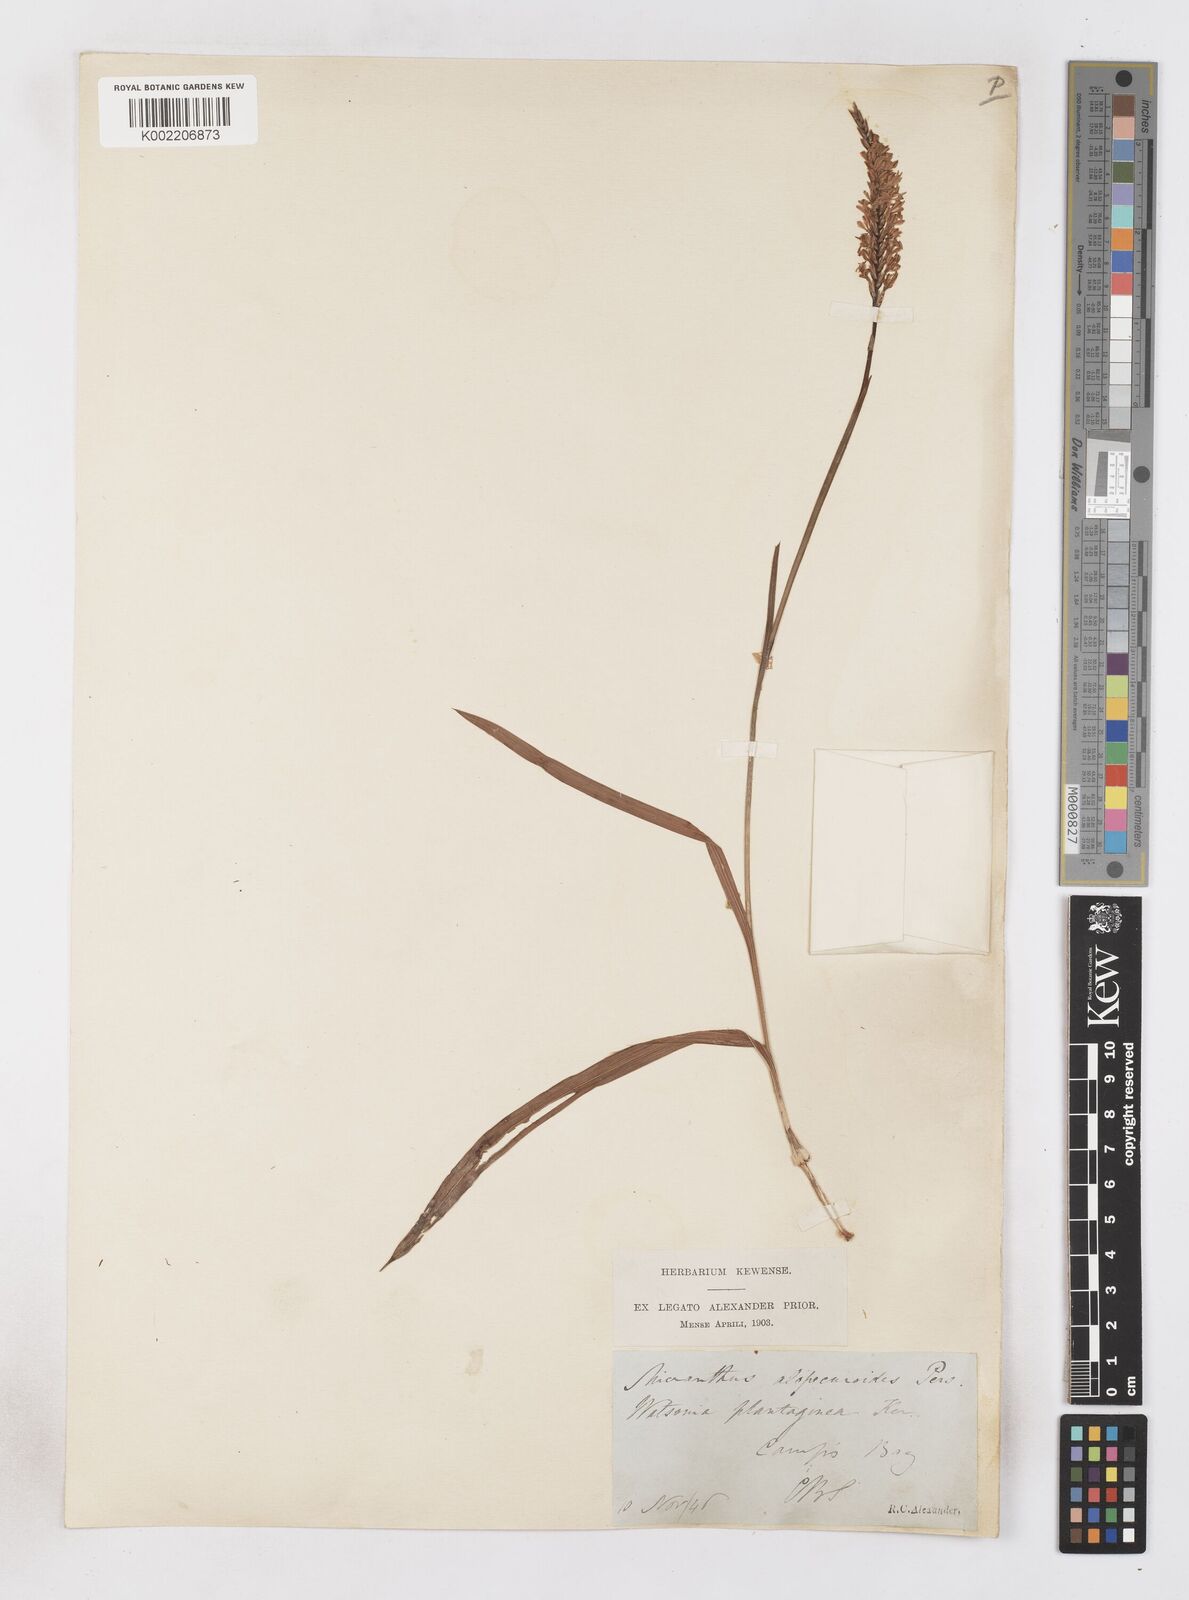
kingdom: Plantae
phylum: Tracheophyta
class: Liliopsida
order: Asparagales
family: Iridaceae
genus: Micranthus
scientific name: Micranthus plantagineus
